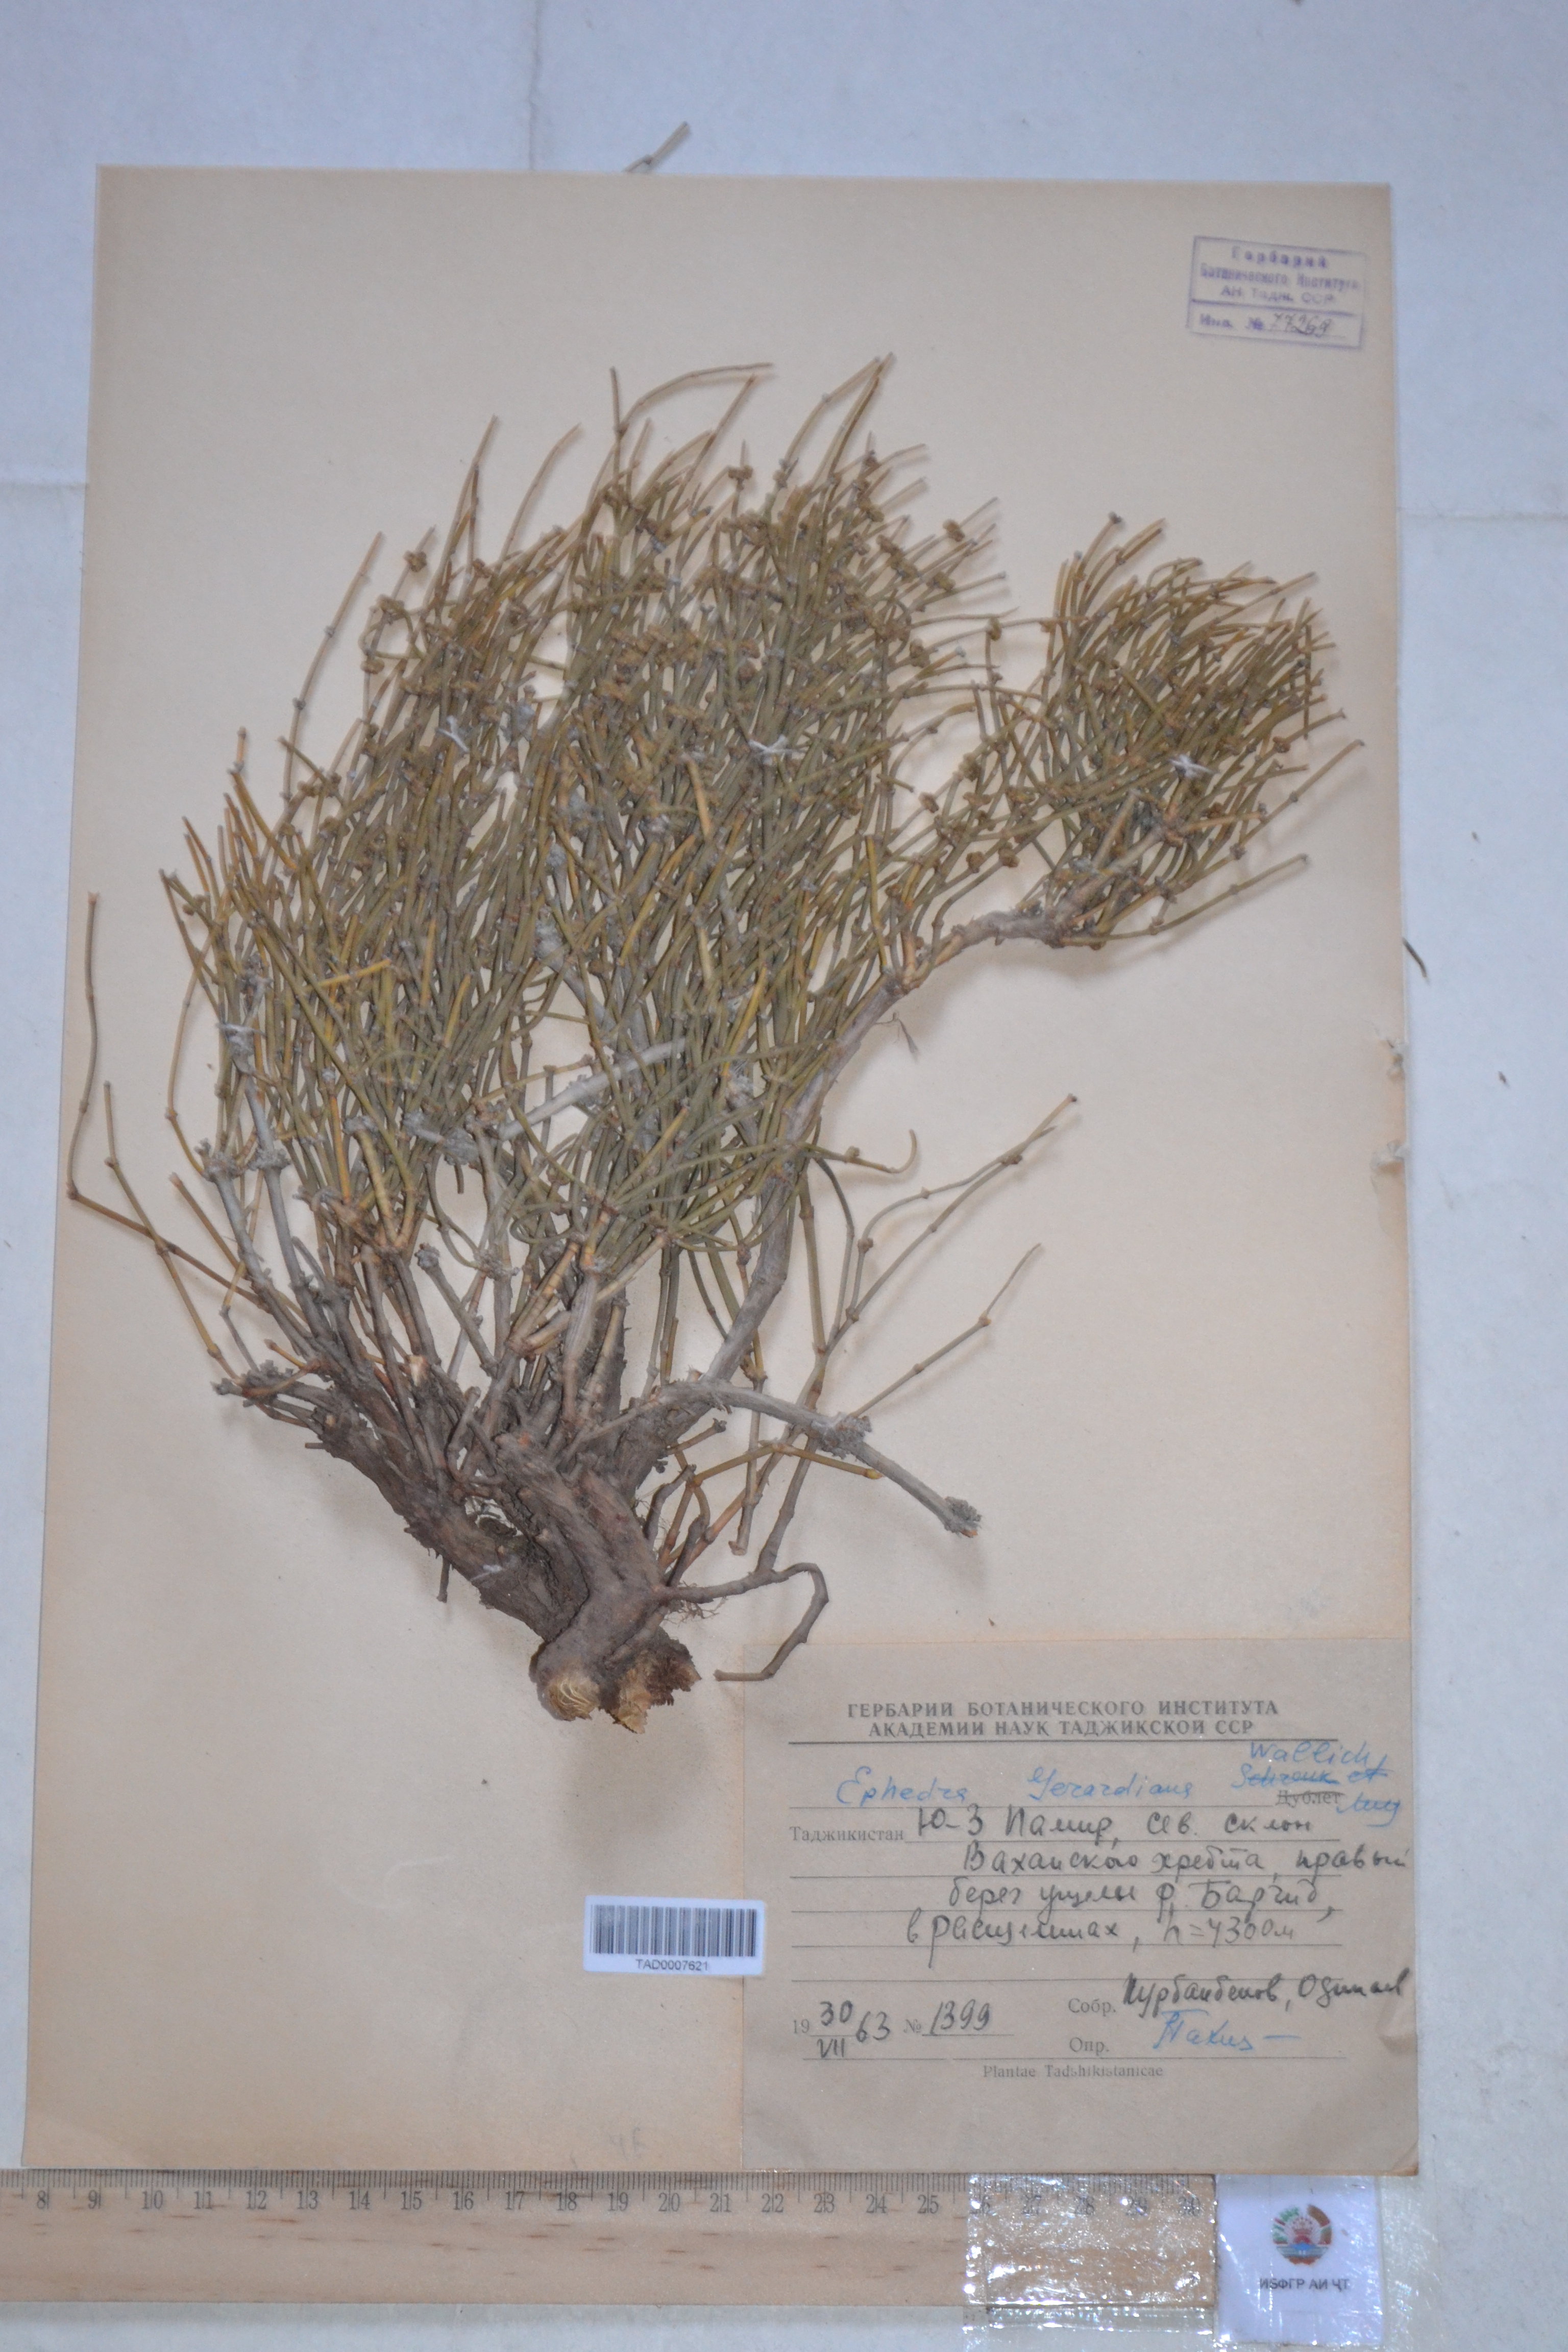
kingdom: Plantae
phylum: Tracheophyta
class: Gnetopsida
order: Ephedrales
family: Ephedraceae
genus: Ephedra
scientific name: Ephedra gerardiana
